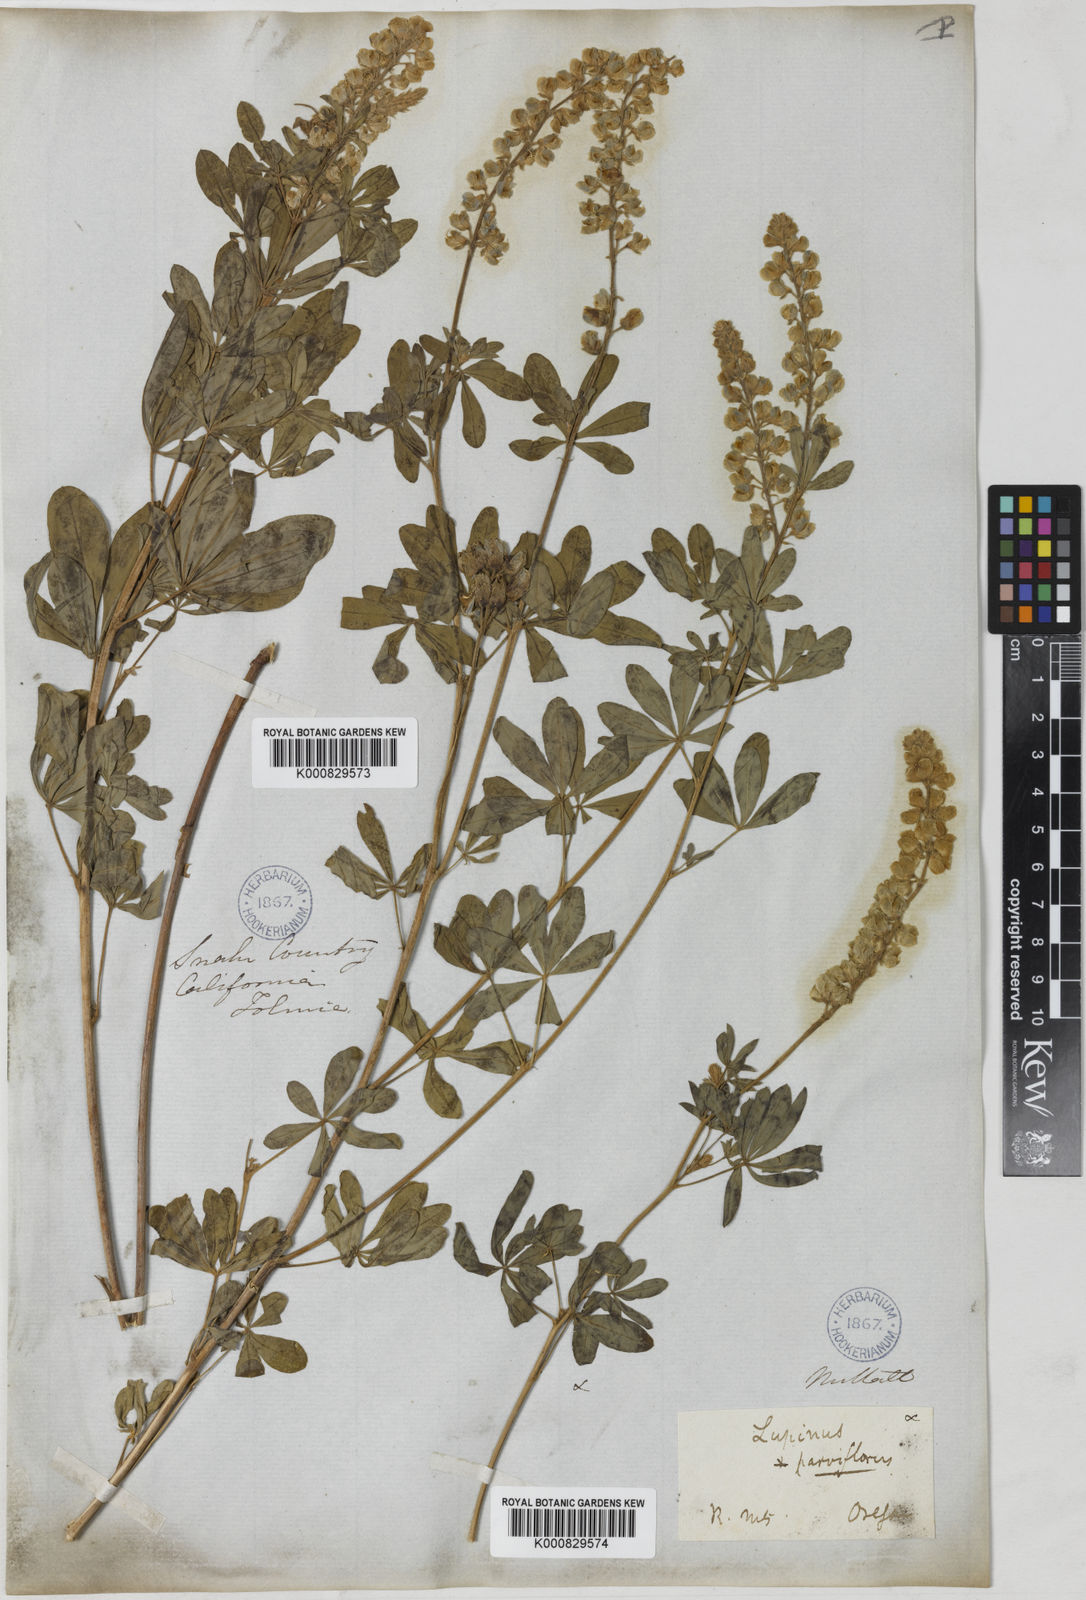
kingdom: Plantae
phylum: Tracheophyta
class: Magnoliopsida
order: Fabales
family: Fabaceae
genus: Lupinus
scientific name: Lupinus argenteus
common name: Silvery lupine
